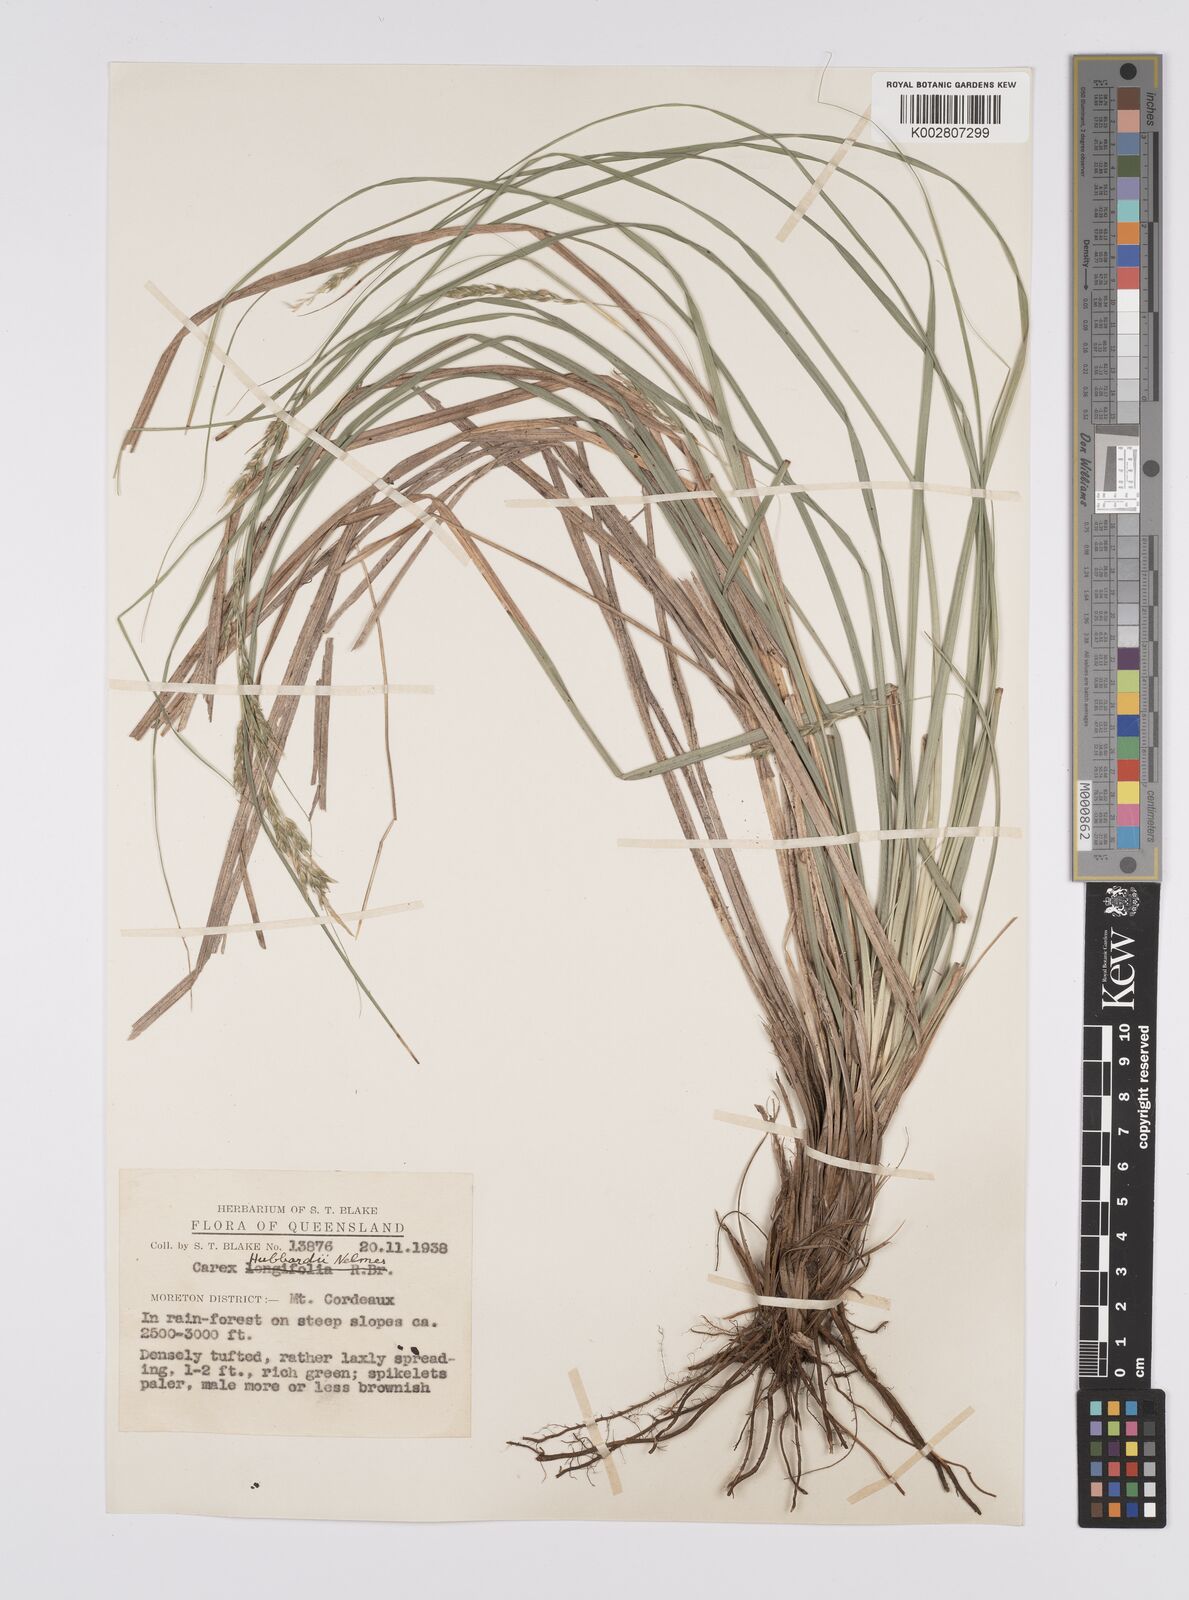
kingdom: Plantae
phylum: Tracheophyta
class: Liliopsida
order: Poales
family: Cyperaceae
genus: Carex
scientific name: Carex hubbardii
